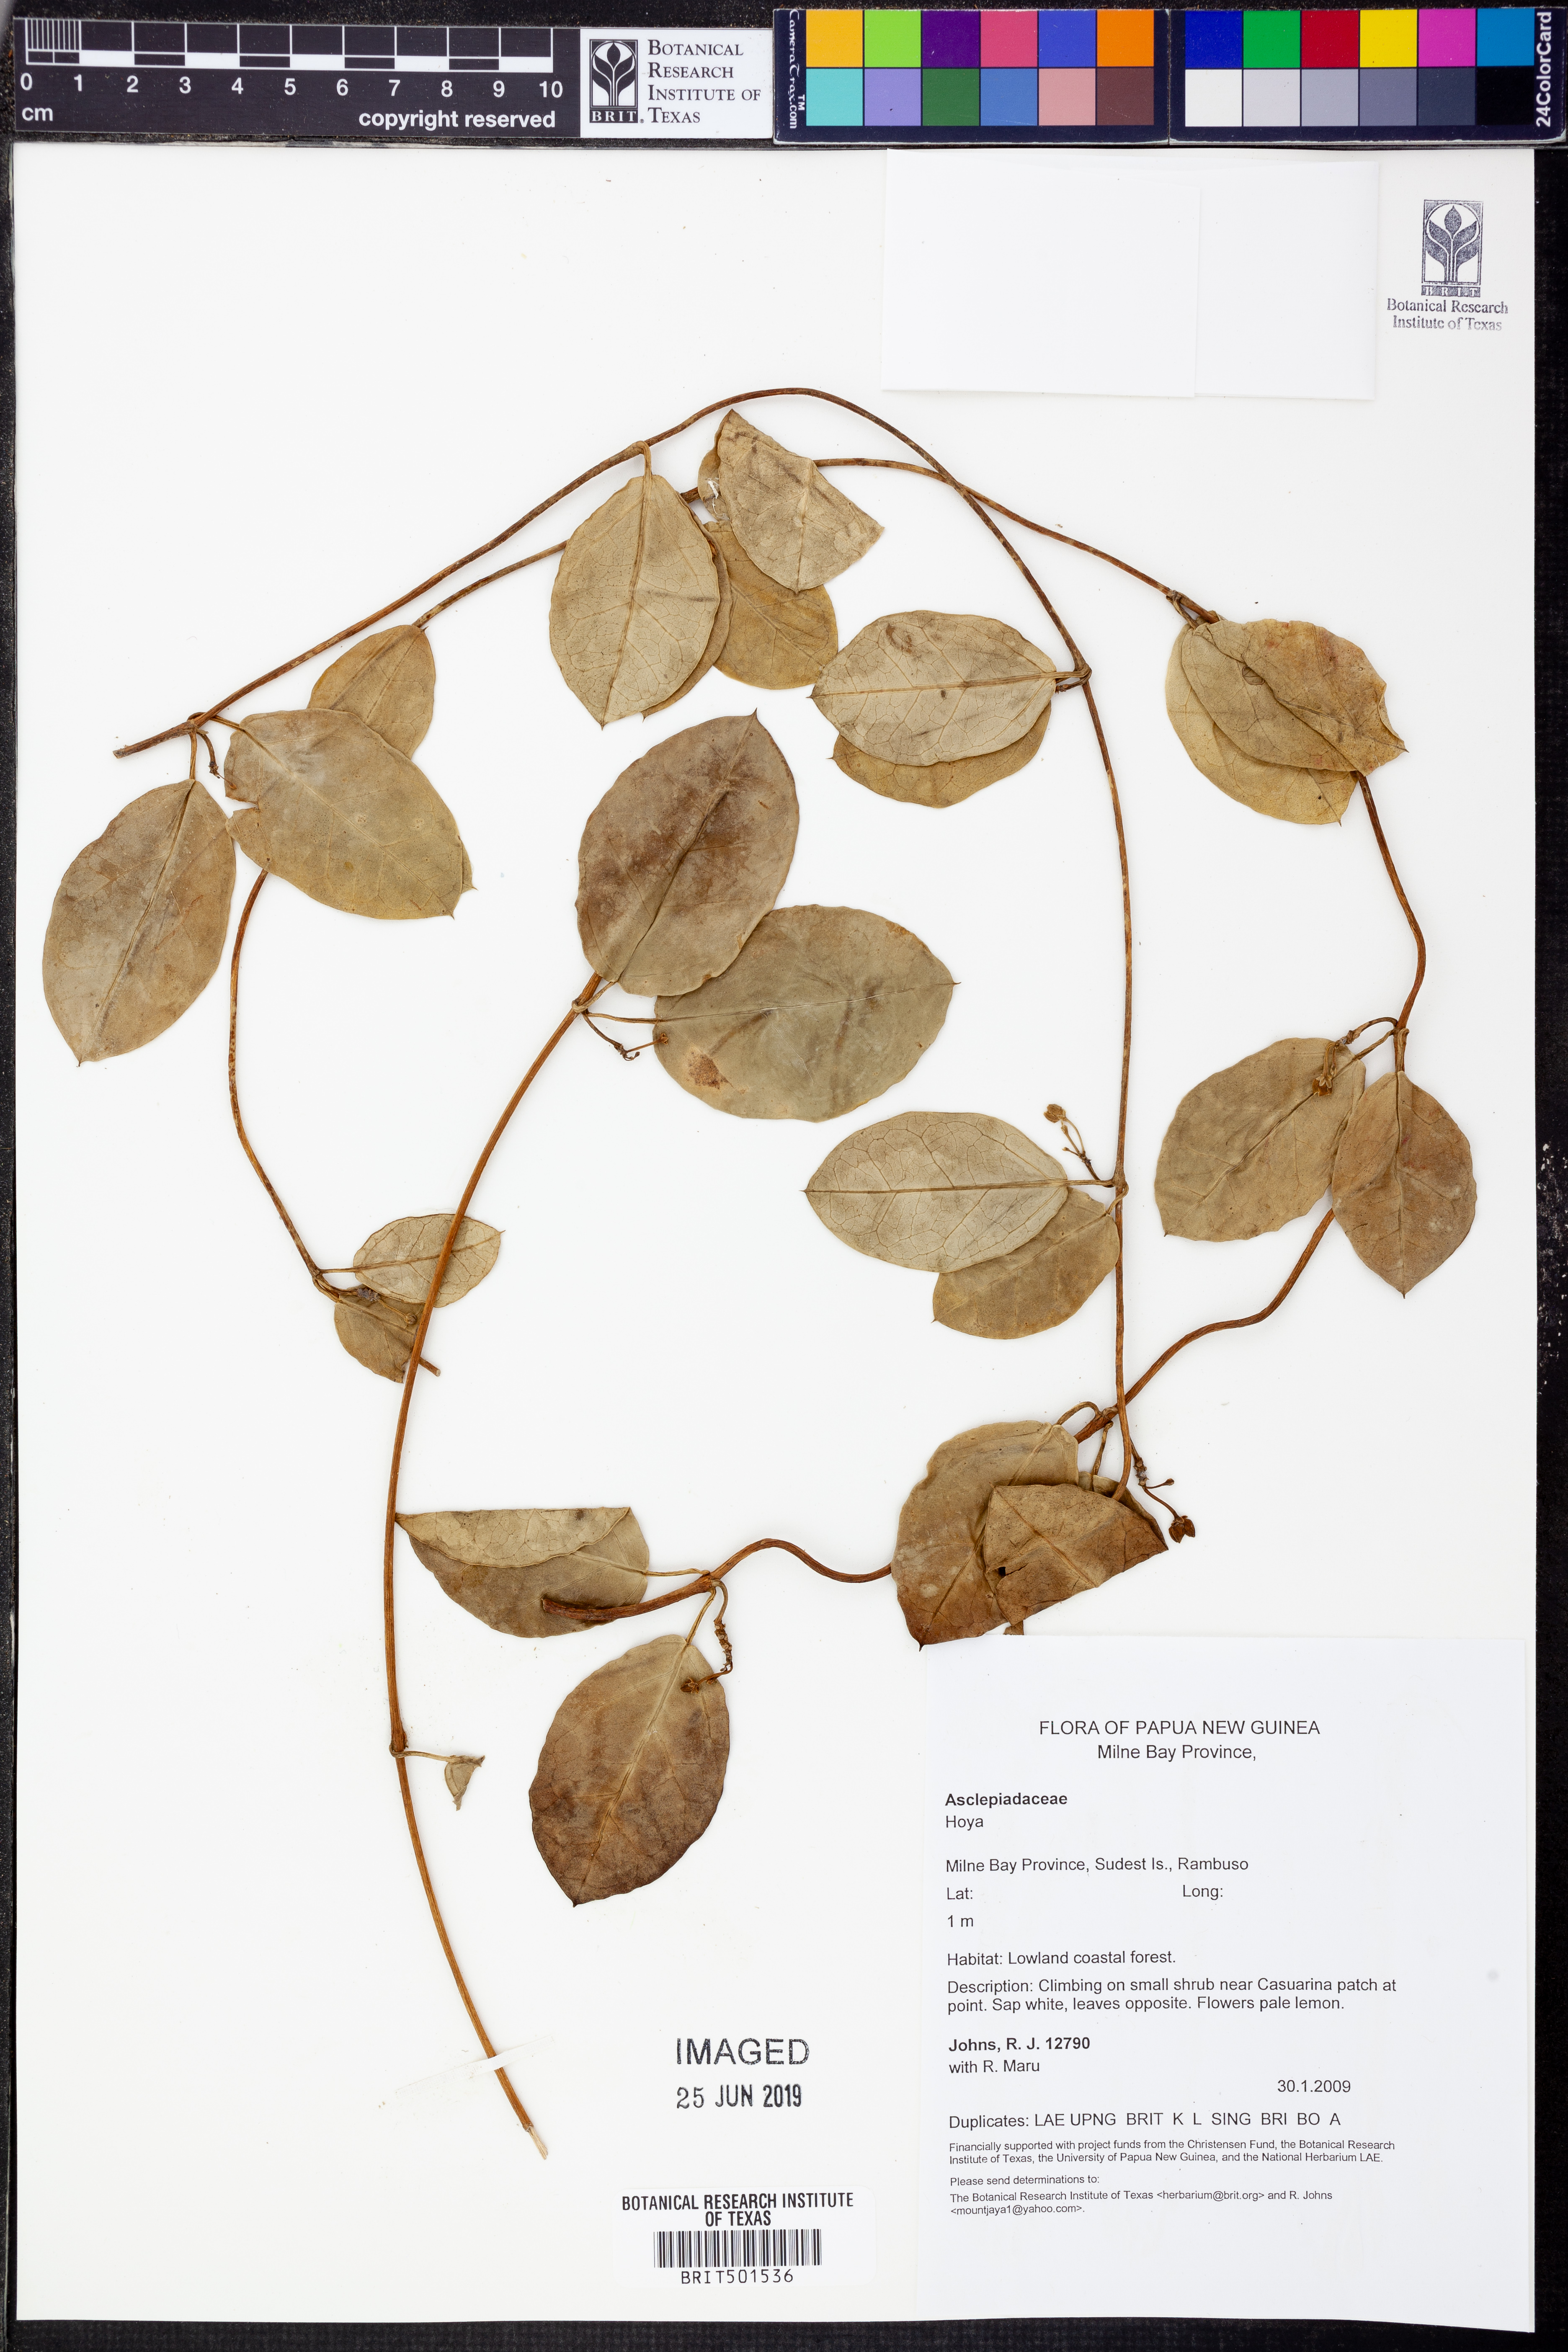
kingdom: Plantae
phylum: Tracheophyta
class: Magnoliopsida
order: Gentianales
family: Apocynaceae
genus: Hoya
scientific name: Hoya
